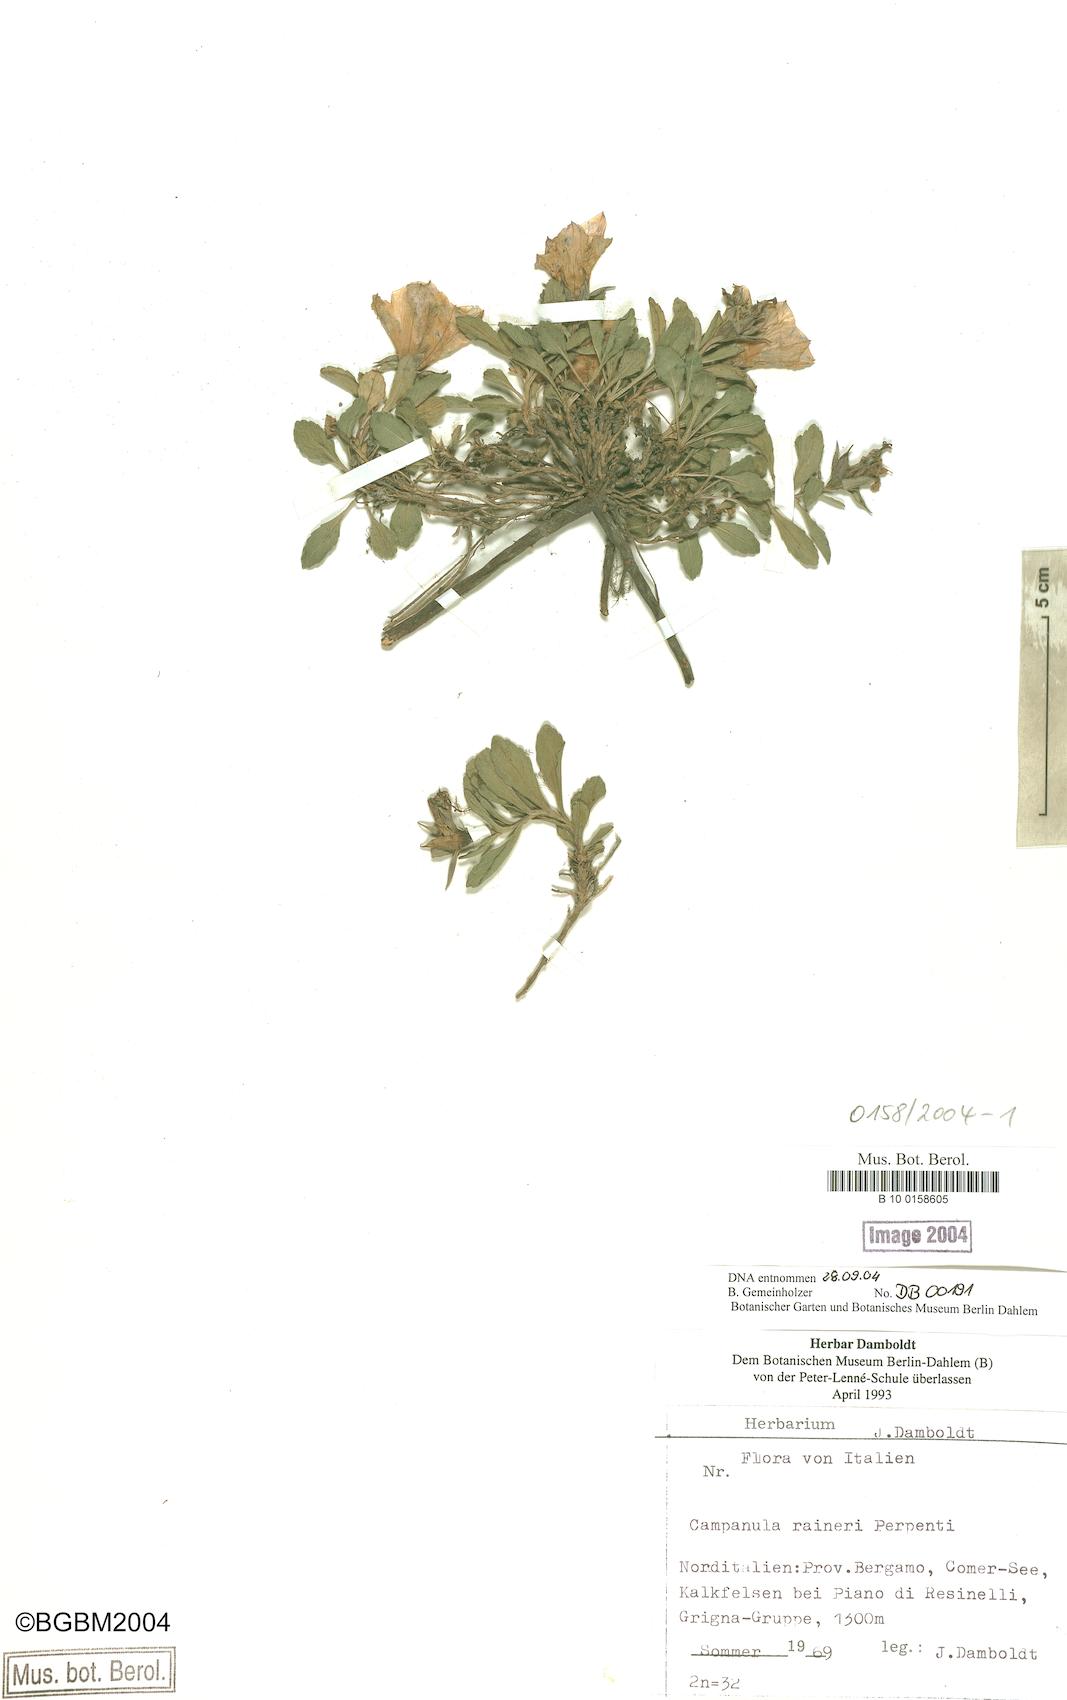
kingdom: Plantae
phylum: Tracheophyta
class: Magnoliopsida
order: Asterales
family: Campanulaceae
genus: Campanula
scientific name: Campanula raineri
